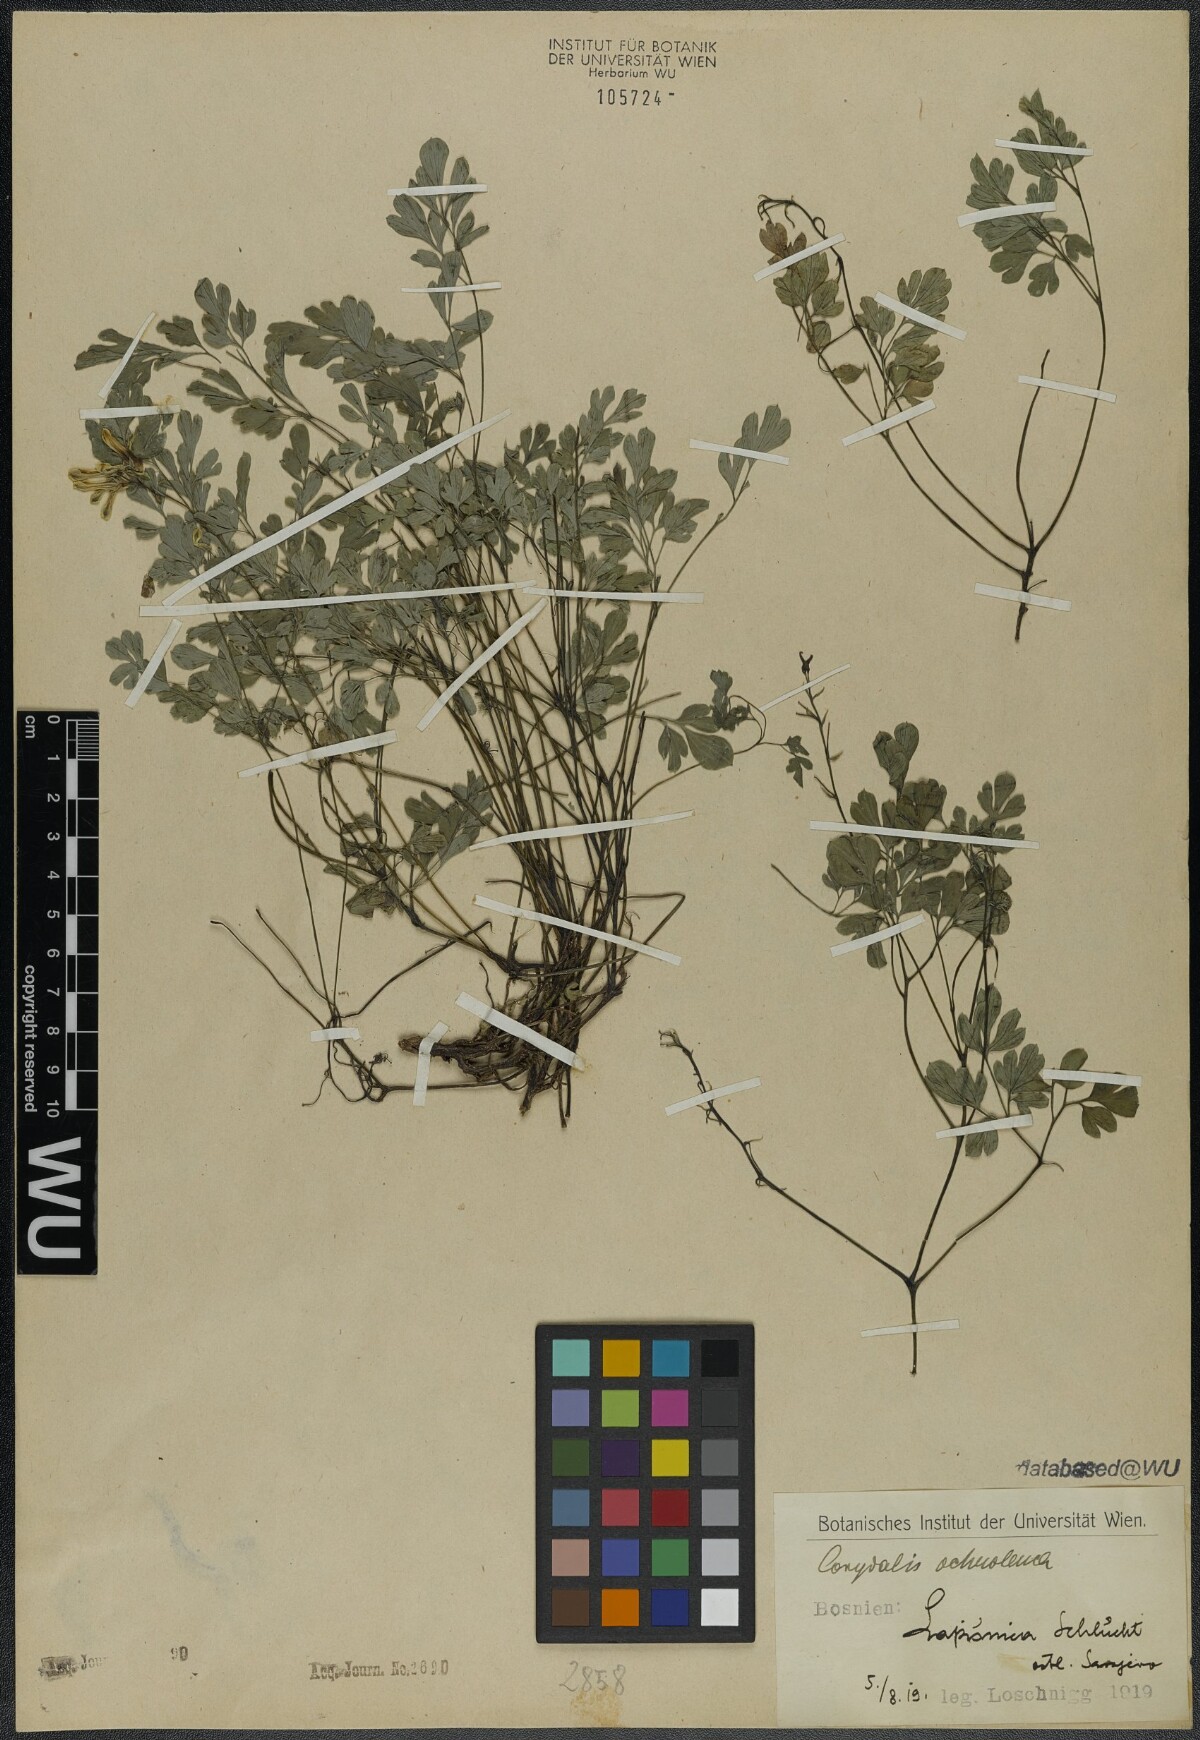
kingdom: Plantae
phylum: Tracheophyta
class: Magnoliopsida
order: Ranunculales
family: Papaveraceae
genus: Pseudofumaria
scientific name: Pseudofumaria alba
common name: Pale corydalis
